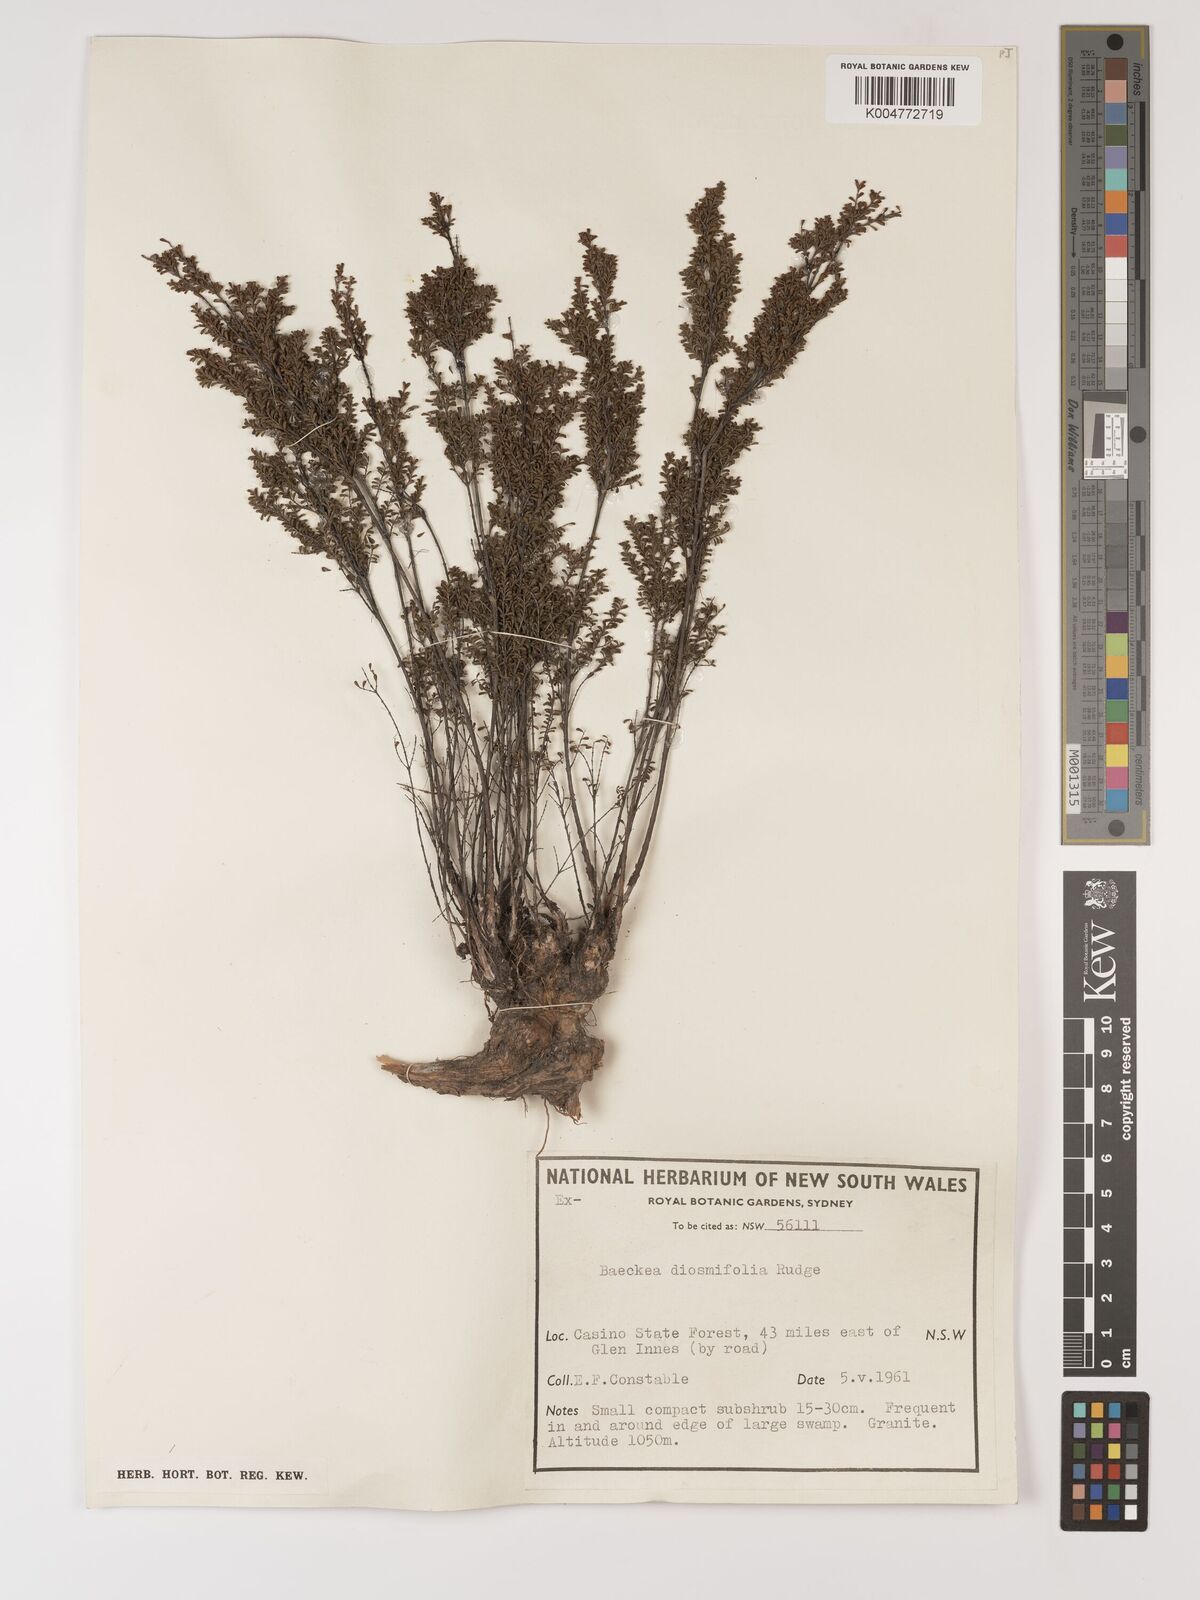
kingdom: Plantae
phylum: Tracheophyta
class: Magnoliopsida
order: Myrtales
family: Myrtaceae
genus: Baeckea
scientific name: Baeckea diosmifolia
